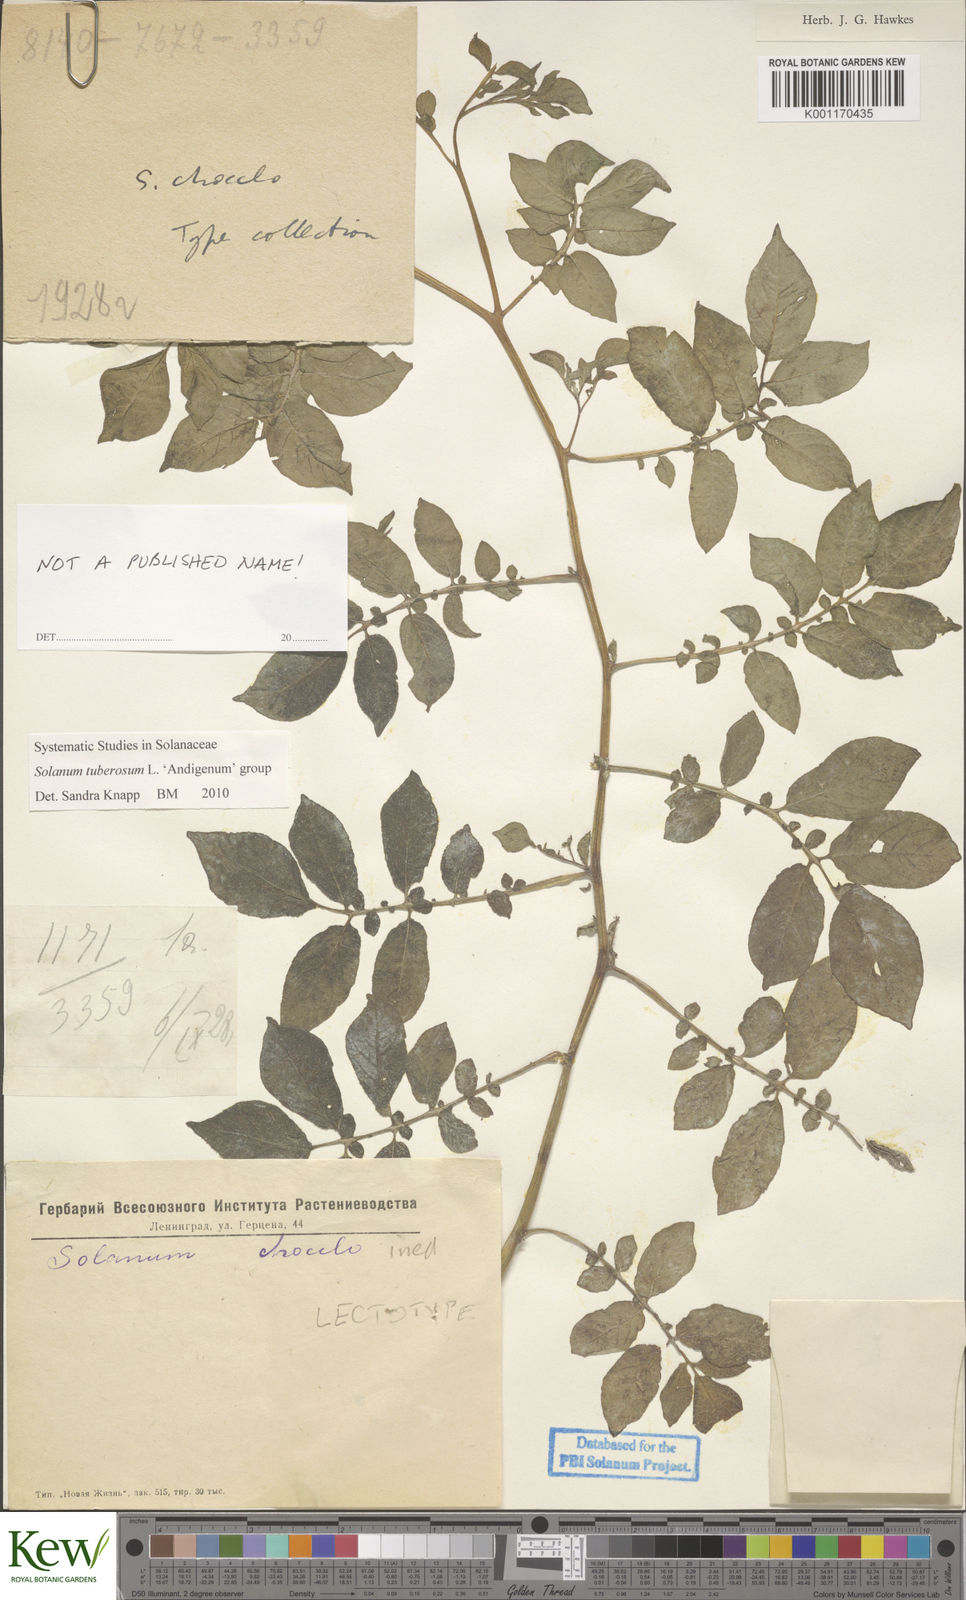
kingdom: Plantae
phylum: Tracheophyta
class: Magnoliopsida
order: Solanales
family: Solanaceae
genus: Solanum
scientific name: Solanum tuberosum
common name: Potato
